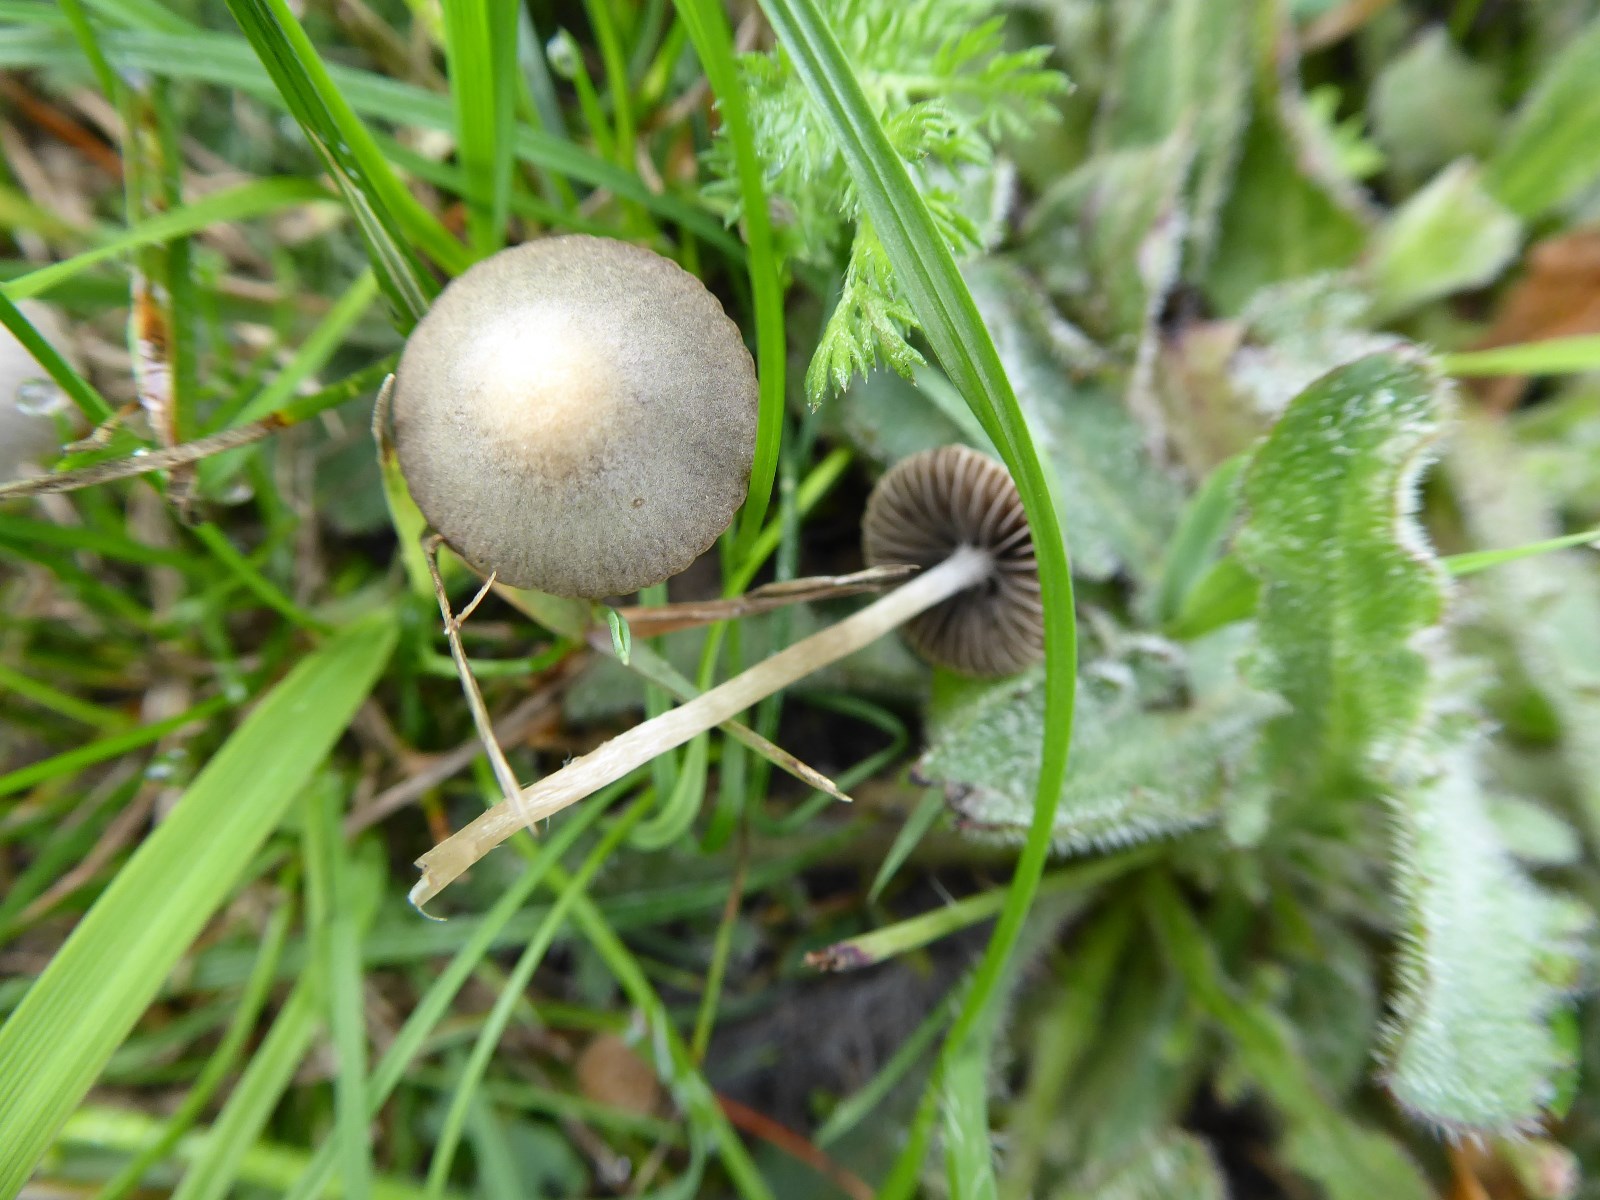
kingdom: Fungi
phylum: Basidiomycota
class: Agaricomycetes
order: Agaricales
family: Bolbitiaceae
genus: Panaeolina
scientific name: Panaeolina foenisecii
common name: høslætsvamp
